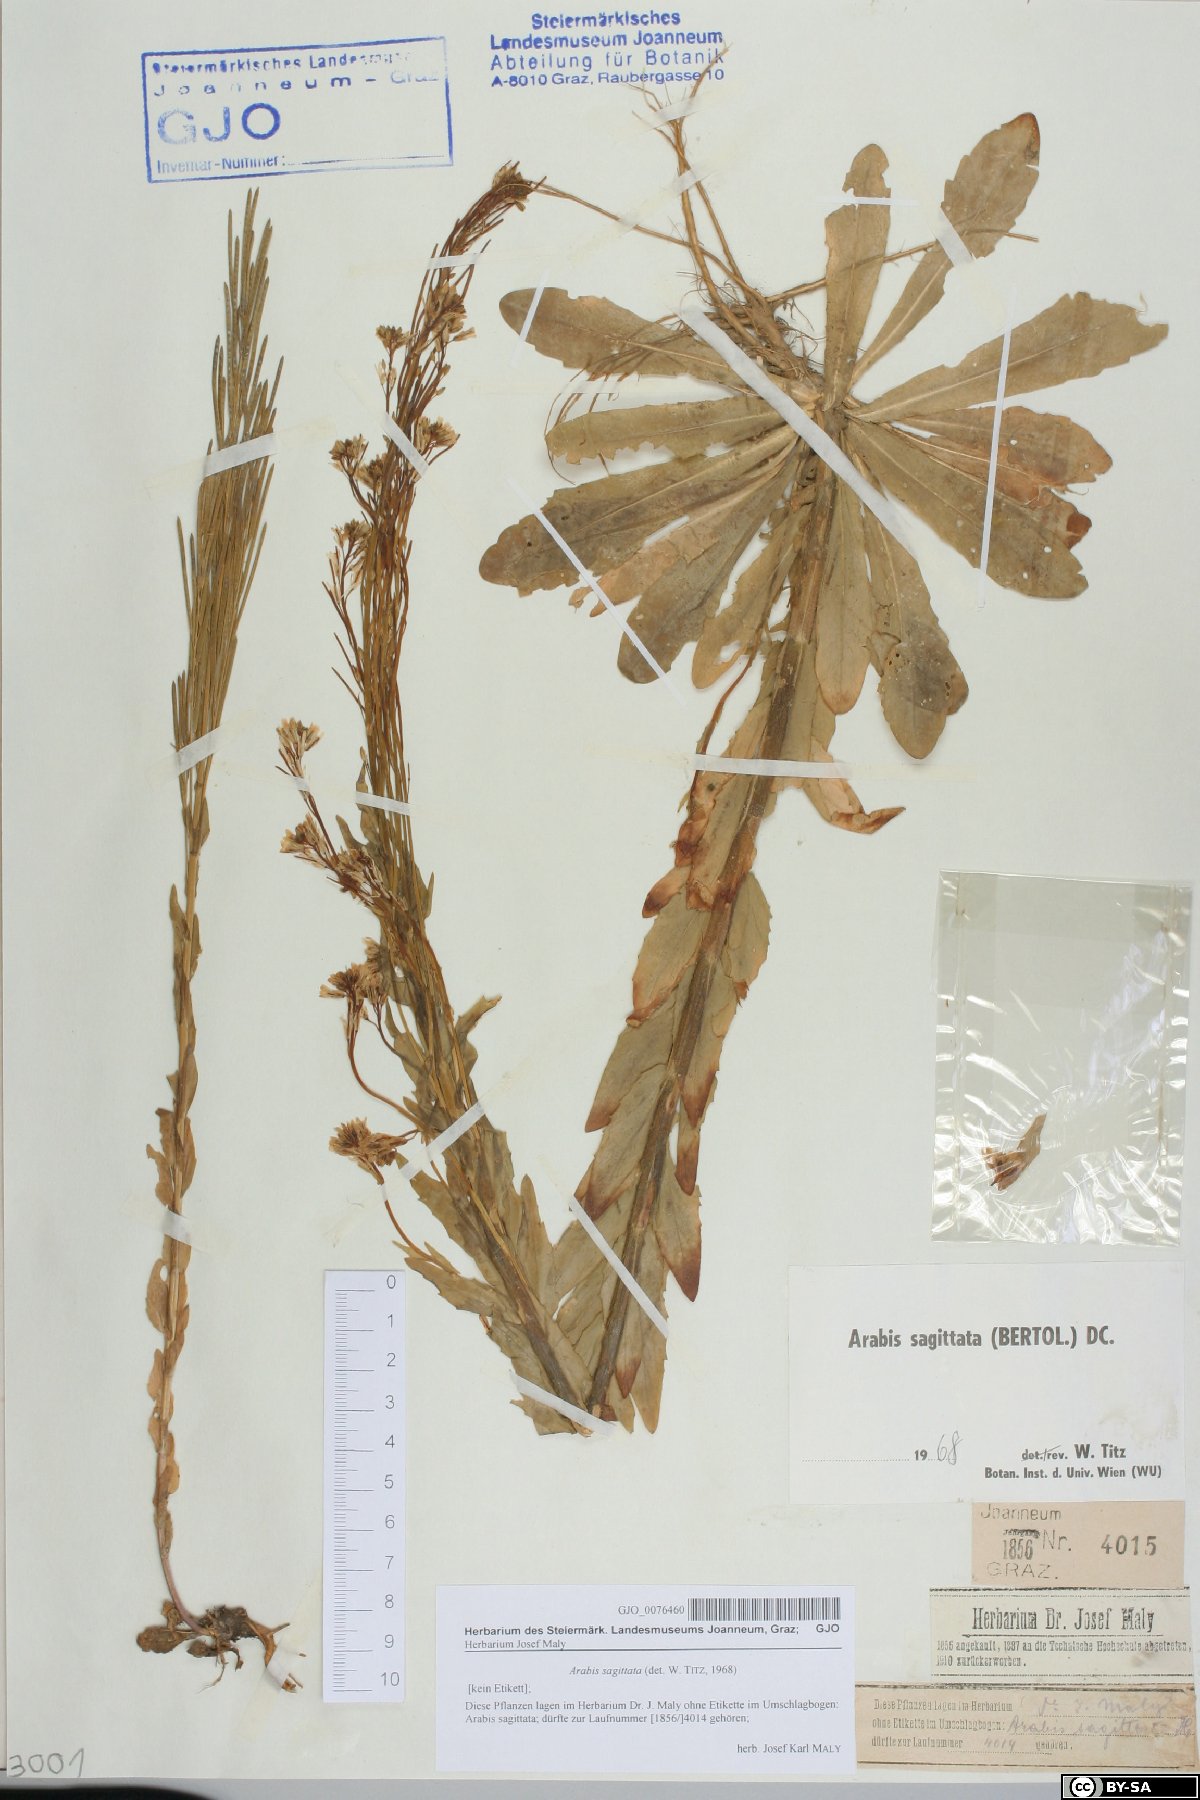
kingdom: Plantae
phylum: Tracheophyta
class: Magnoliopsida
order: Brassicales
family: Brassicaceae
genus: Arabis
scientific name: Arabis sagittata
